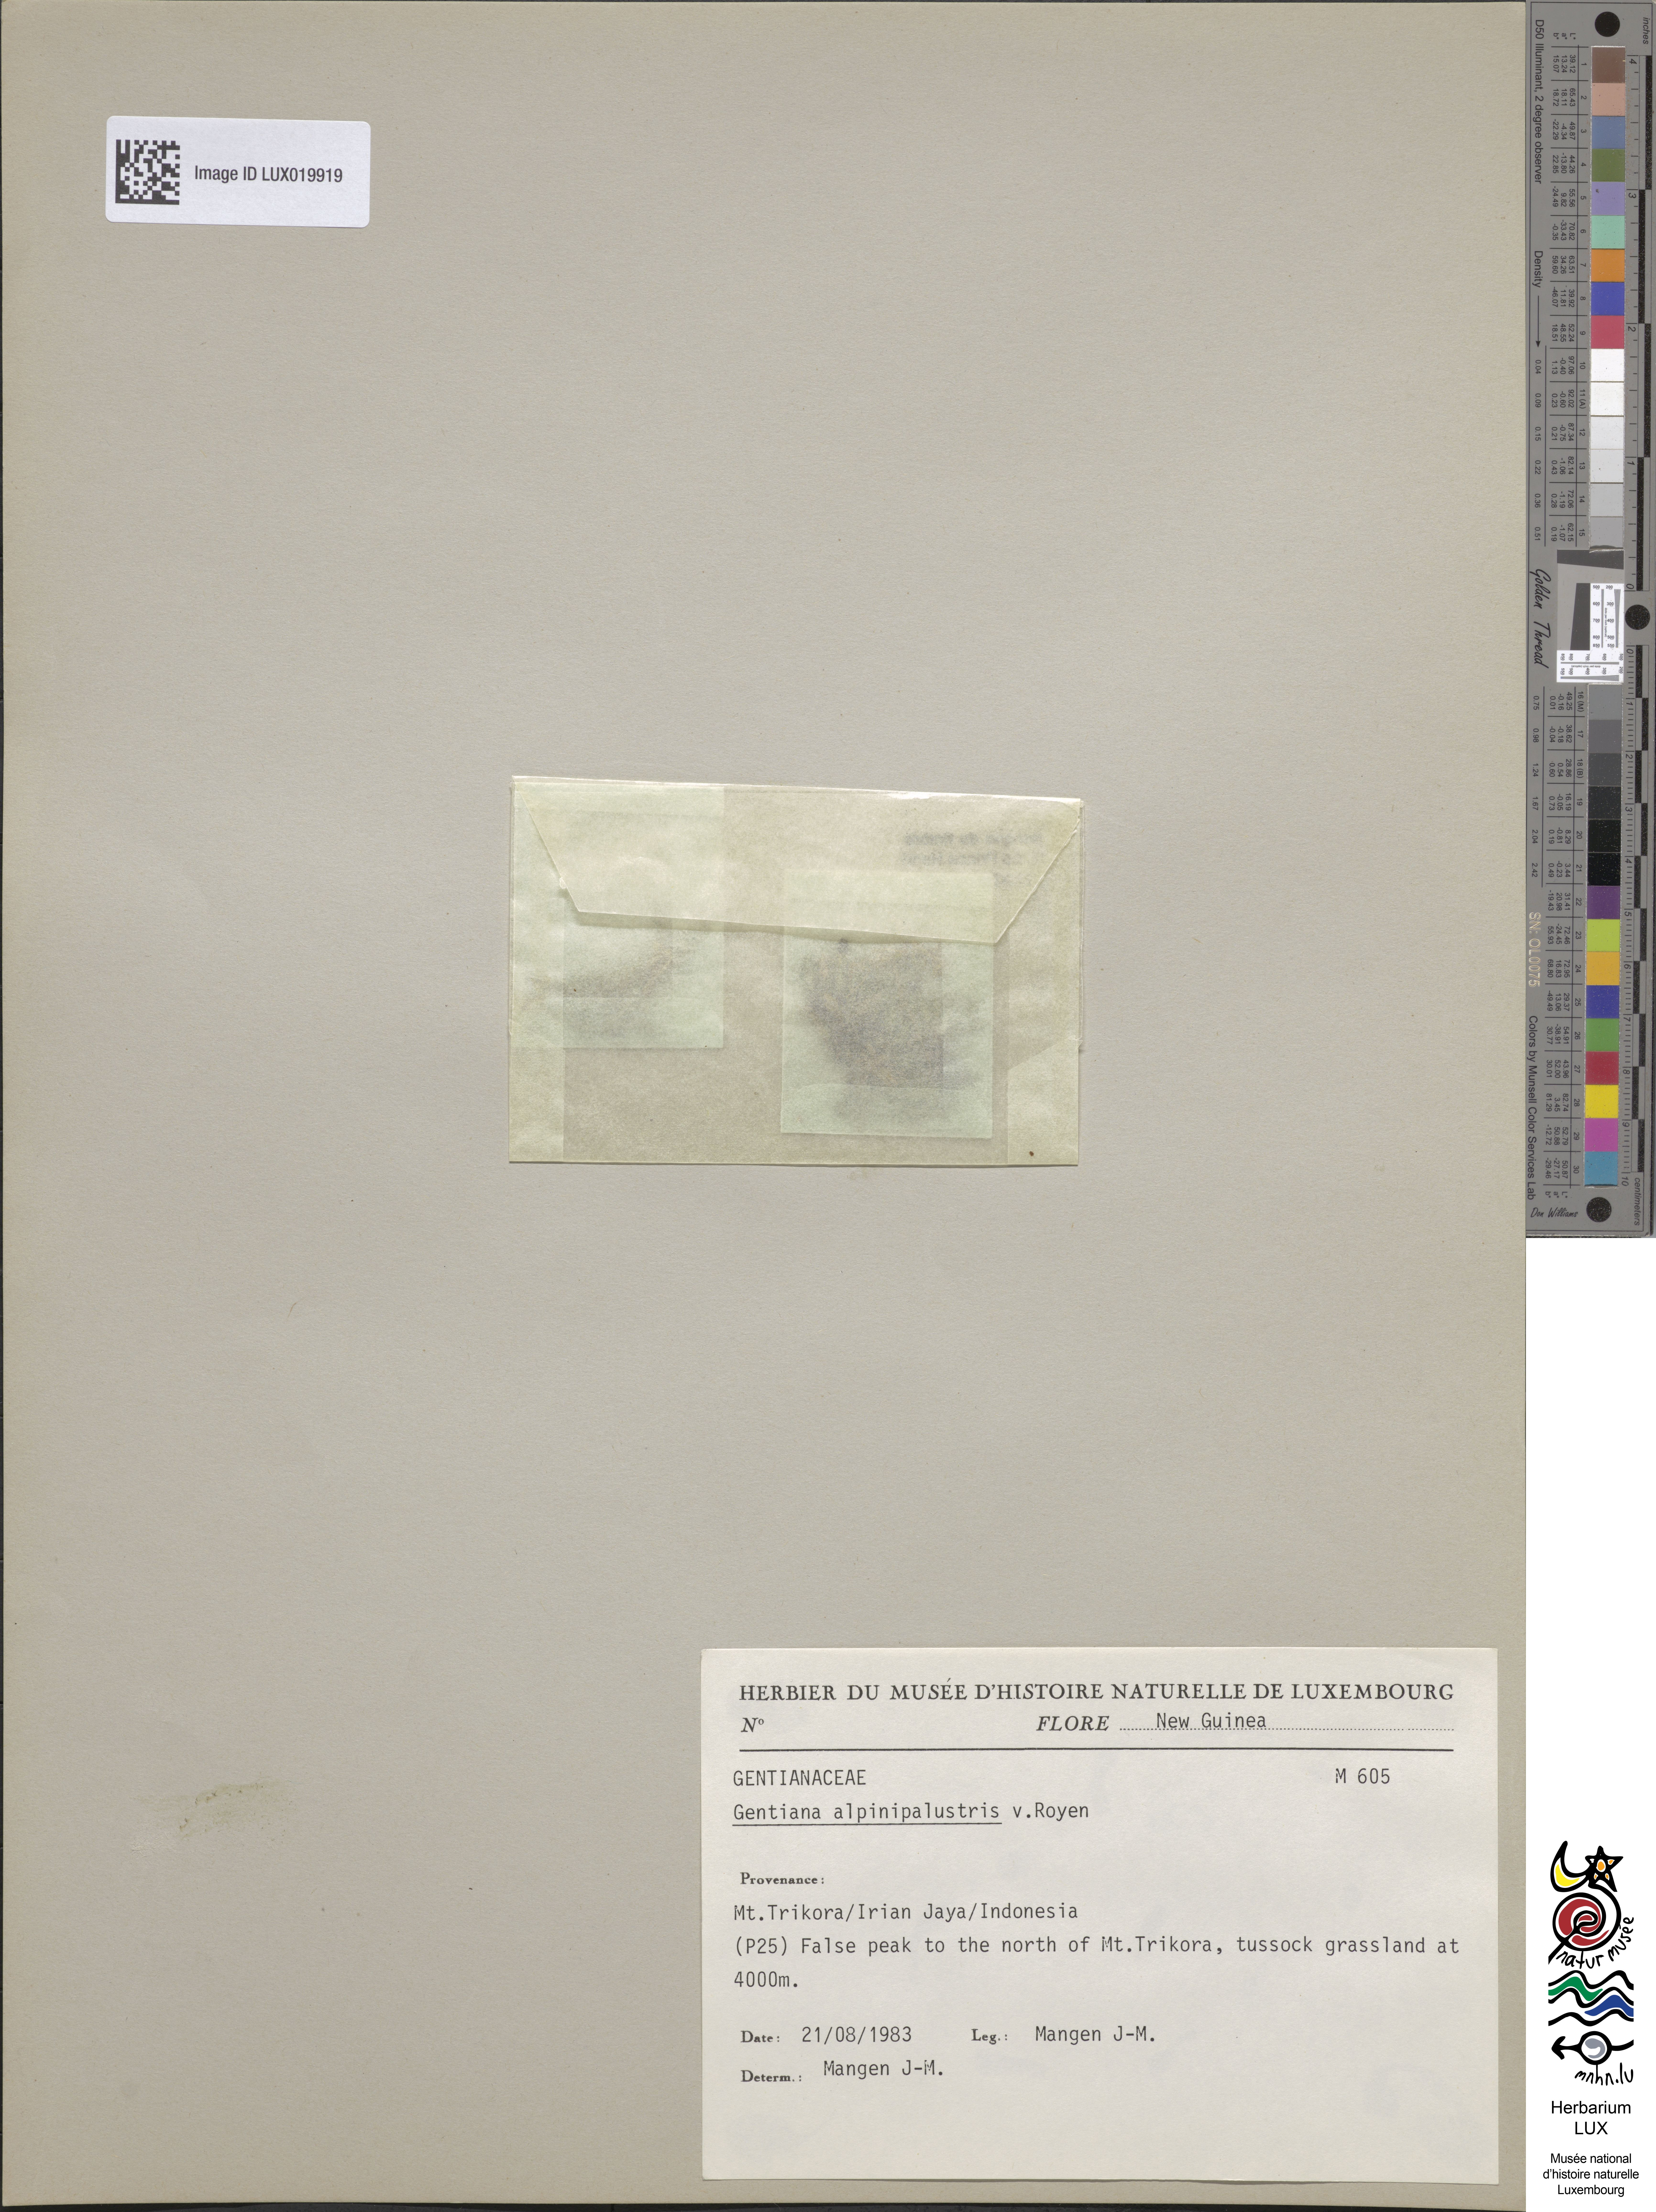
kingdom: Plantae
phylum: Tracheophyta
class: Magnoliopsida
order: Gentianales
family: Gentianaceae
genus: Gentiana
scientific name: Gentiana cruttwellii
